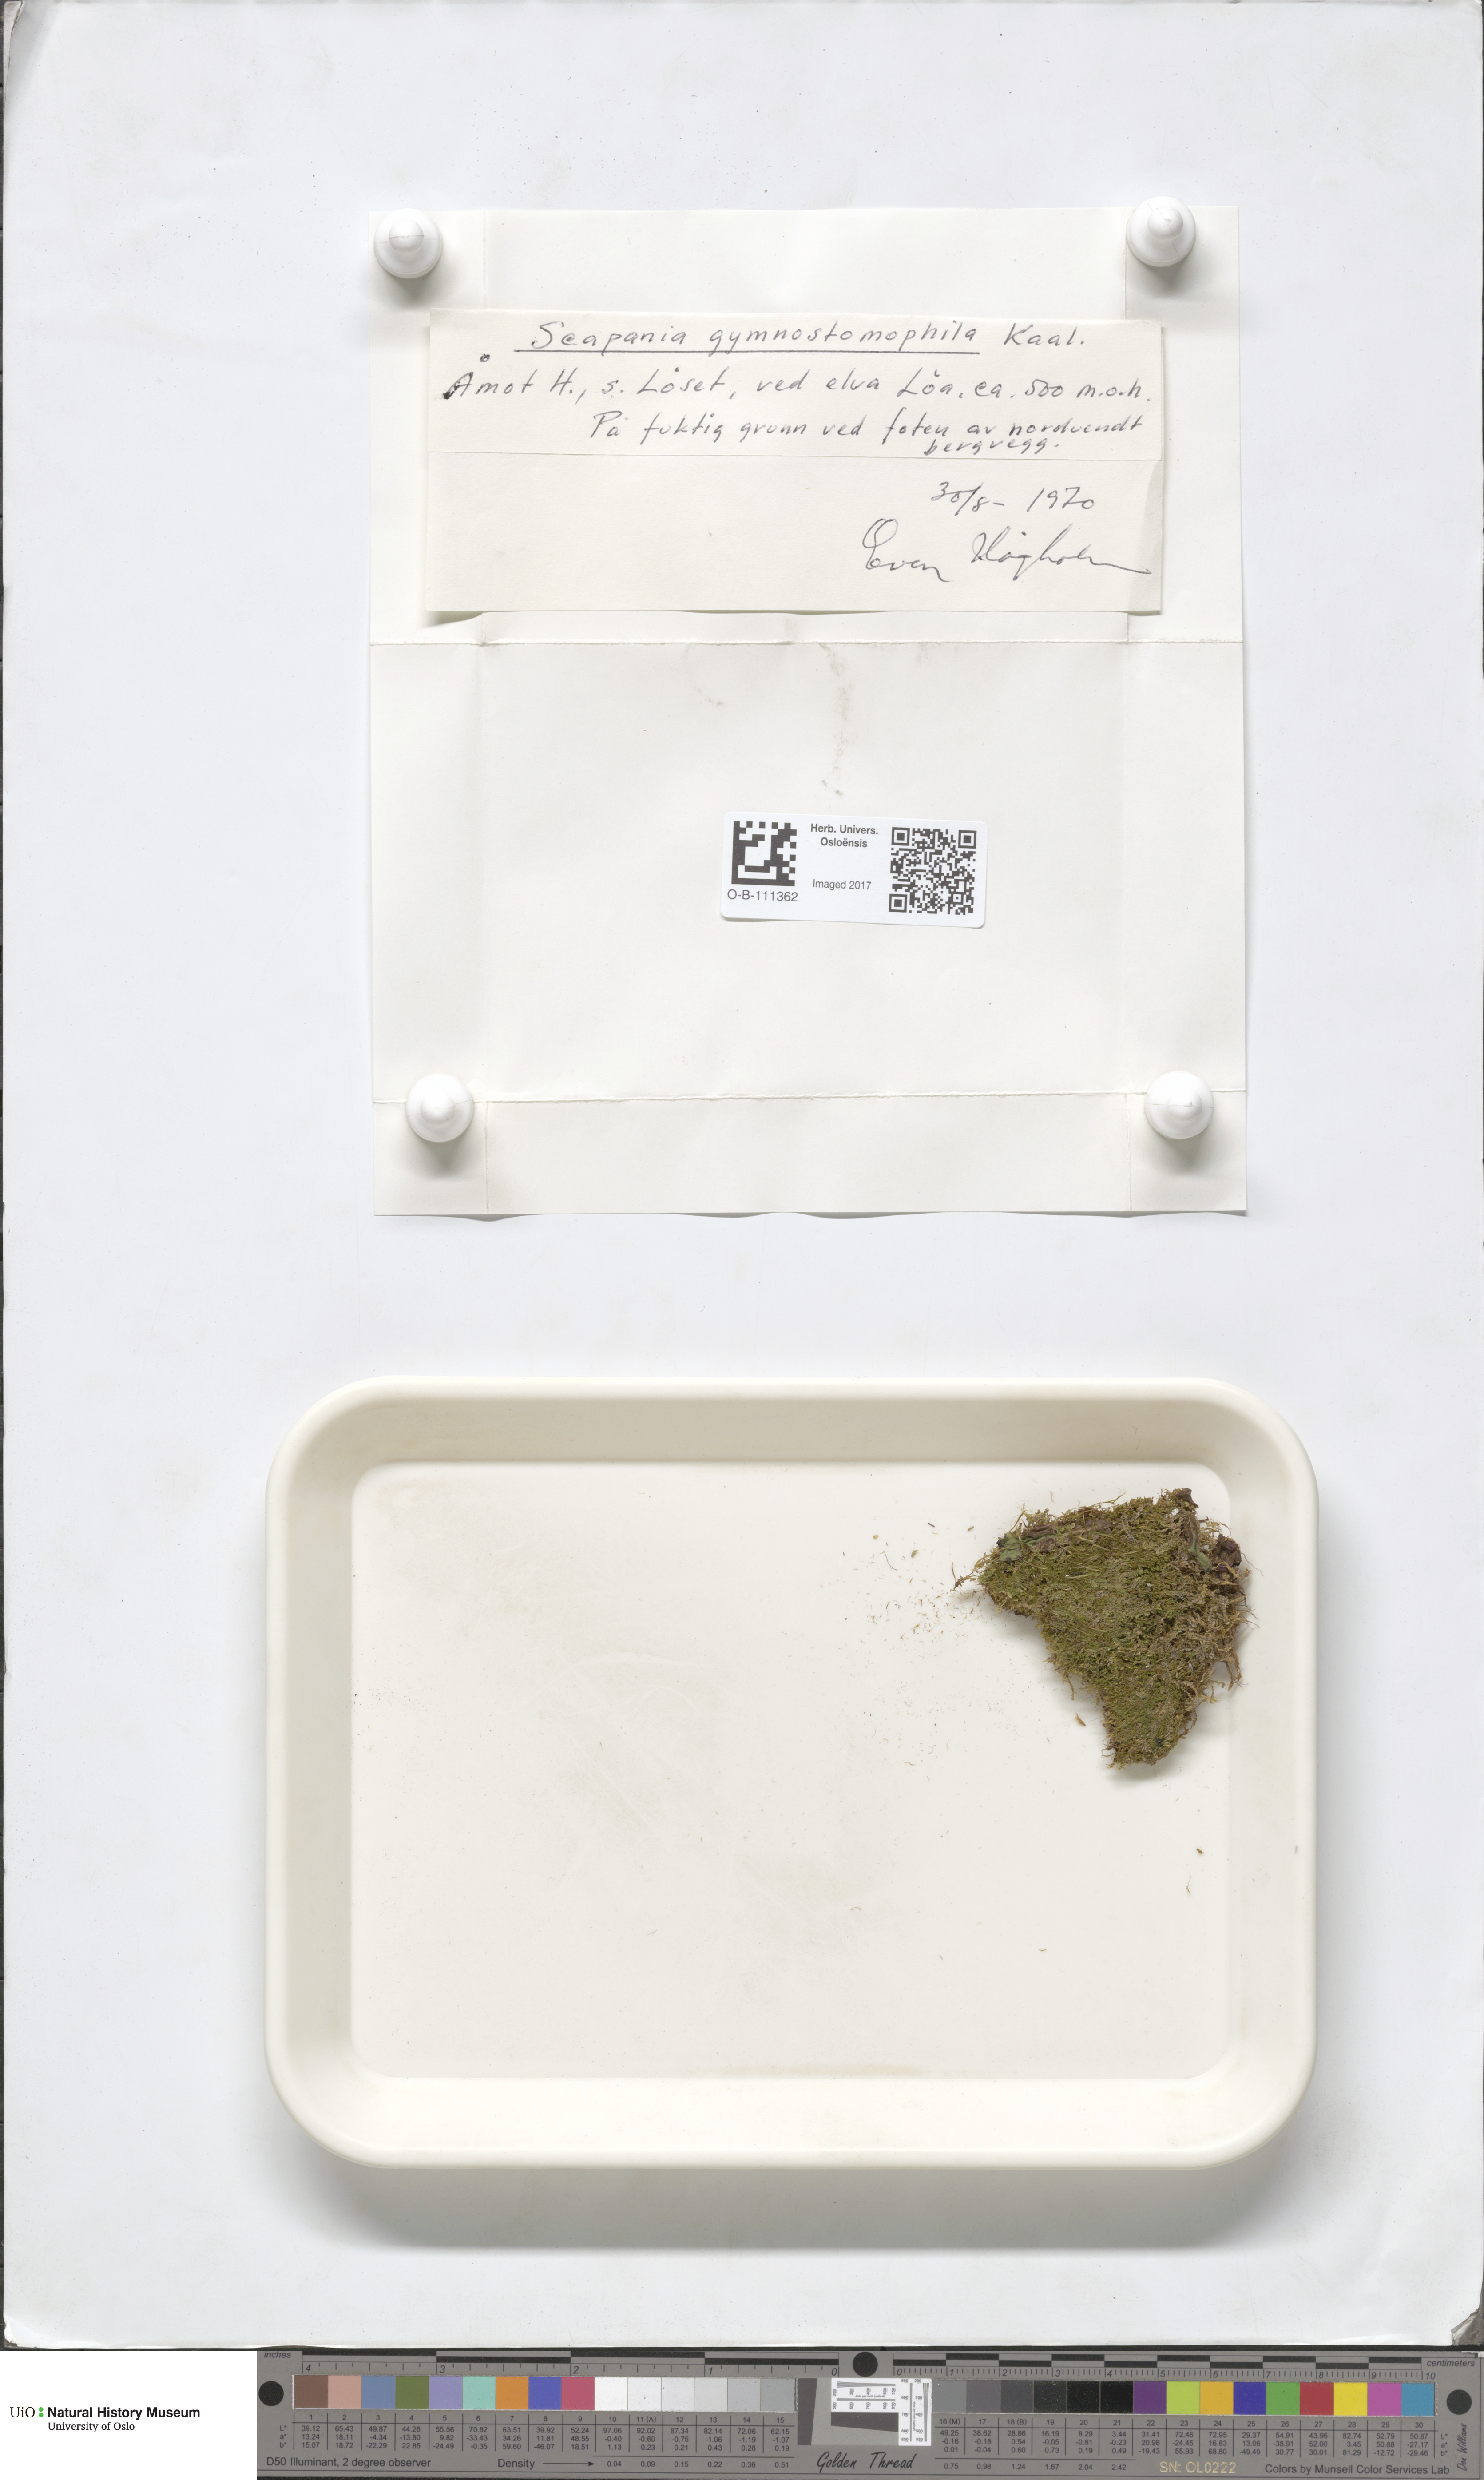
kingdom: Plantae
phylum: Marchantiophyta
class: Jungermanniopsida
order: Jungermanniales
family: Scapaniaceae
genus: Scapania
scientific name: Scapania gymnostomophila
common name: Narrow-lobed earwort
